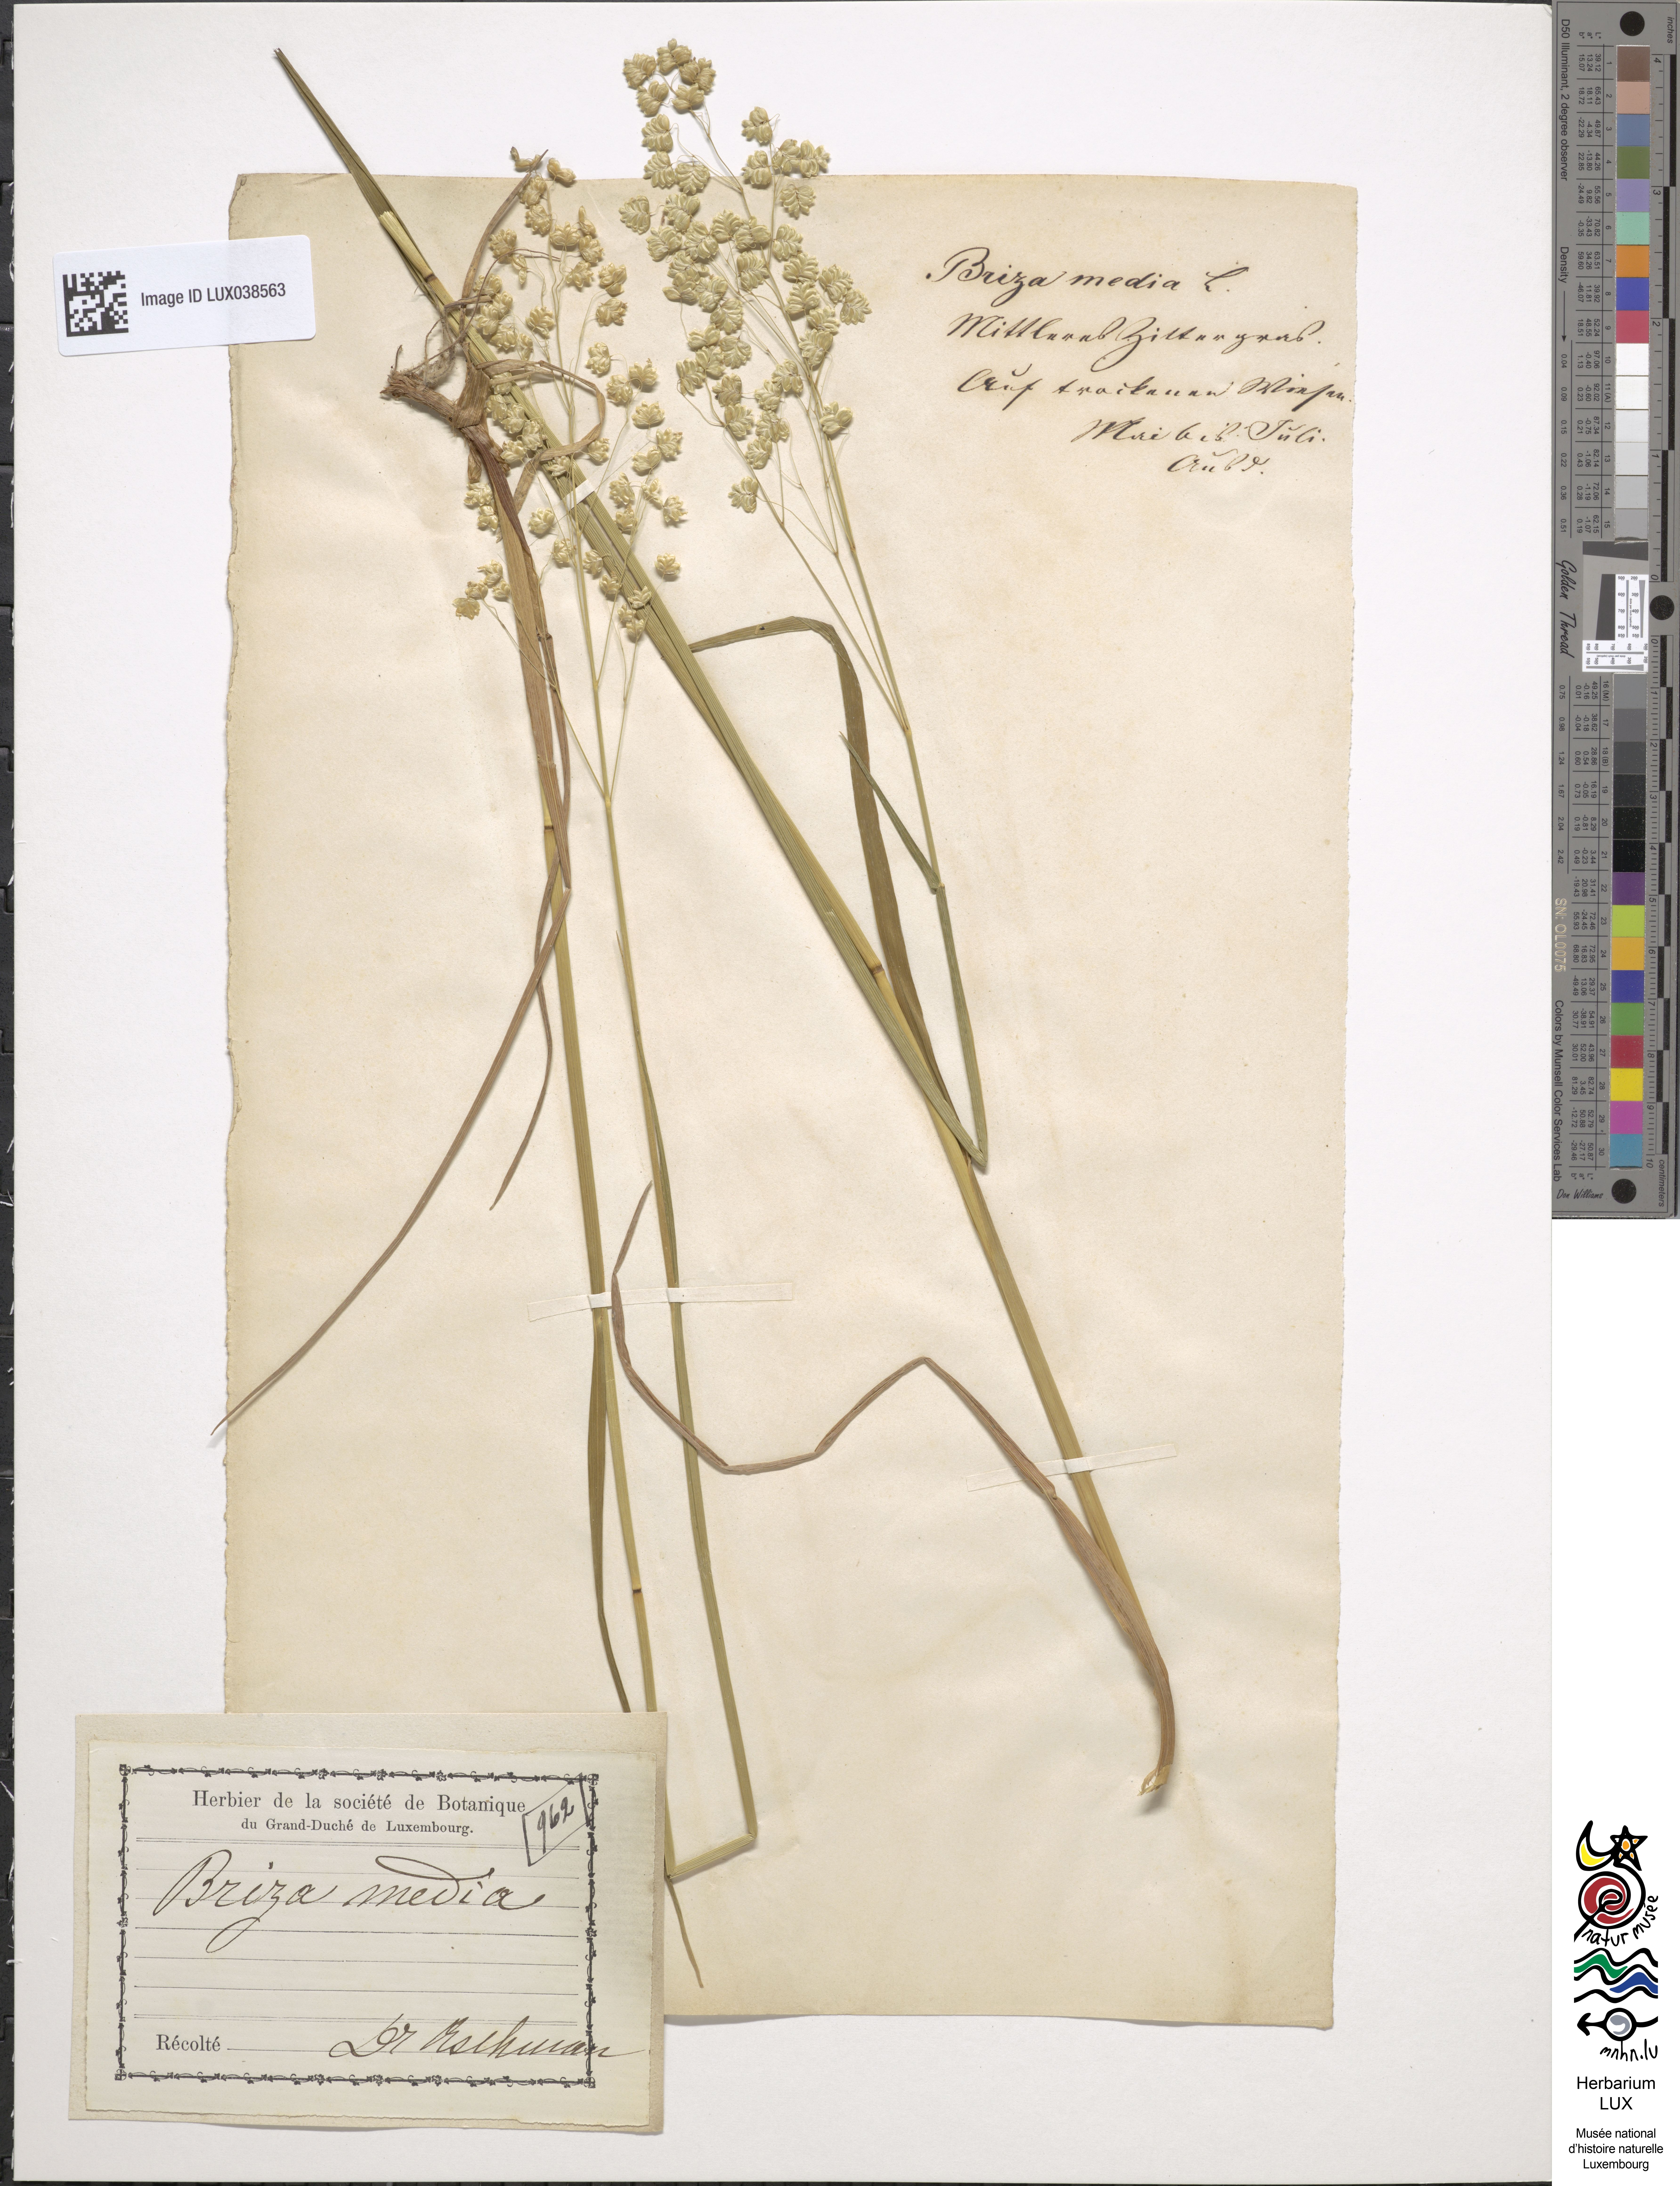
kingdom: Plantae
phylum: Tracheophyta
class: Liliopsida
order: Poales
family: Poaceae
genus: Bromus
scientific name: Bromus squarrosus
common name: Corn brome
